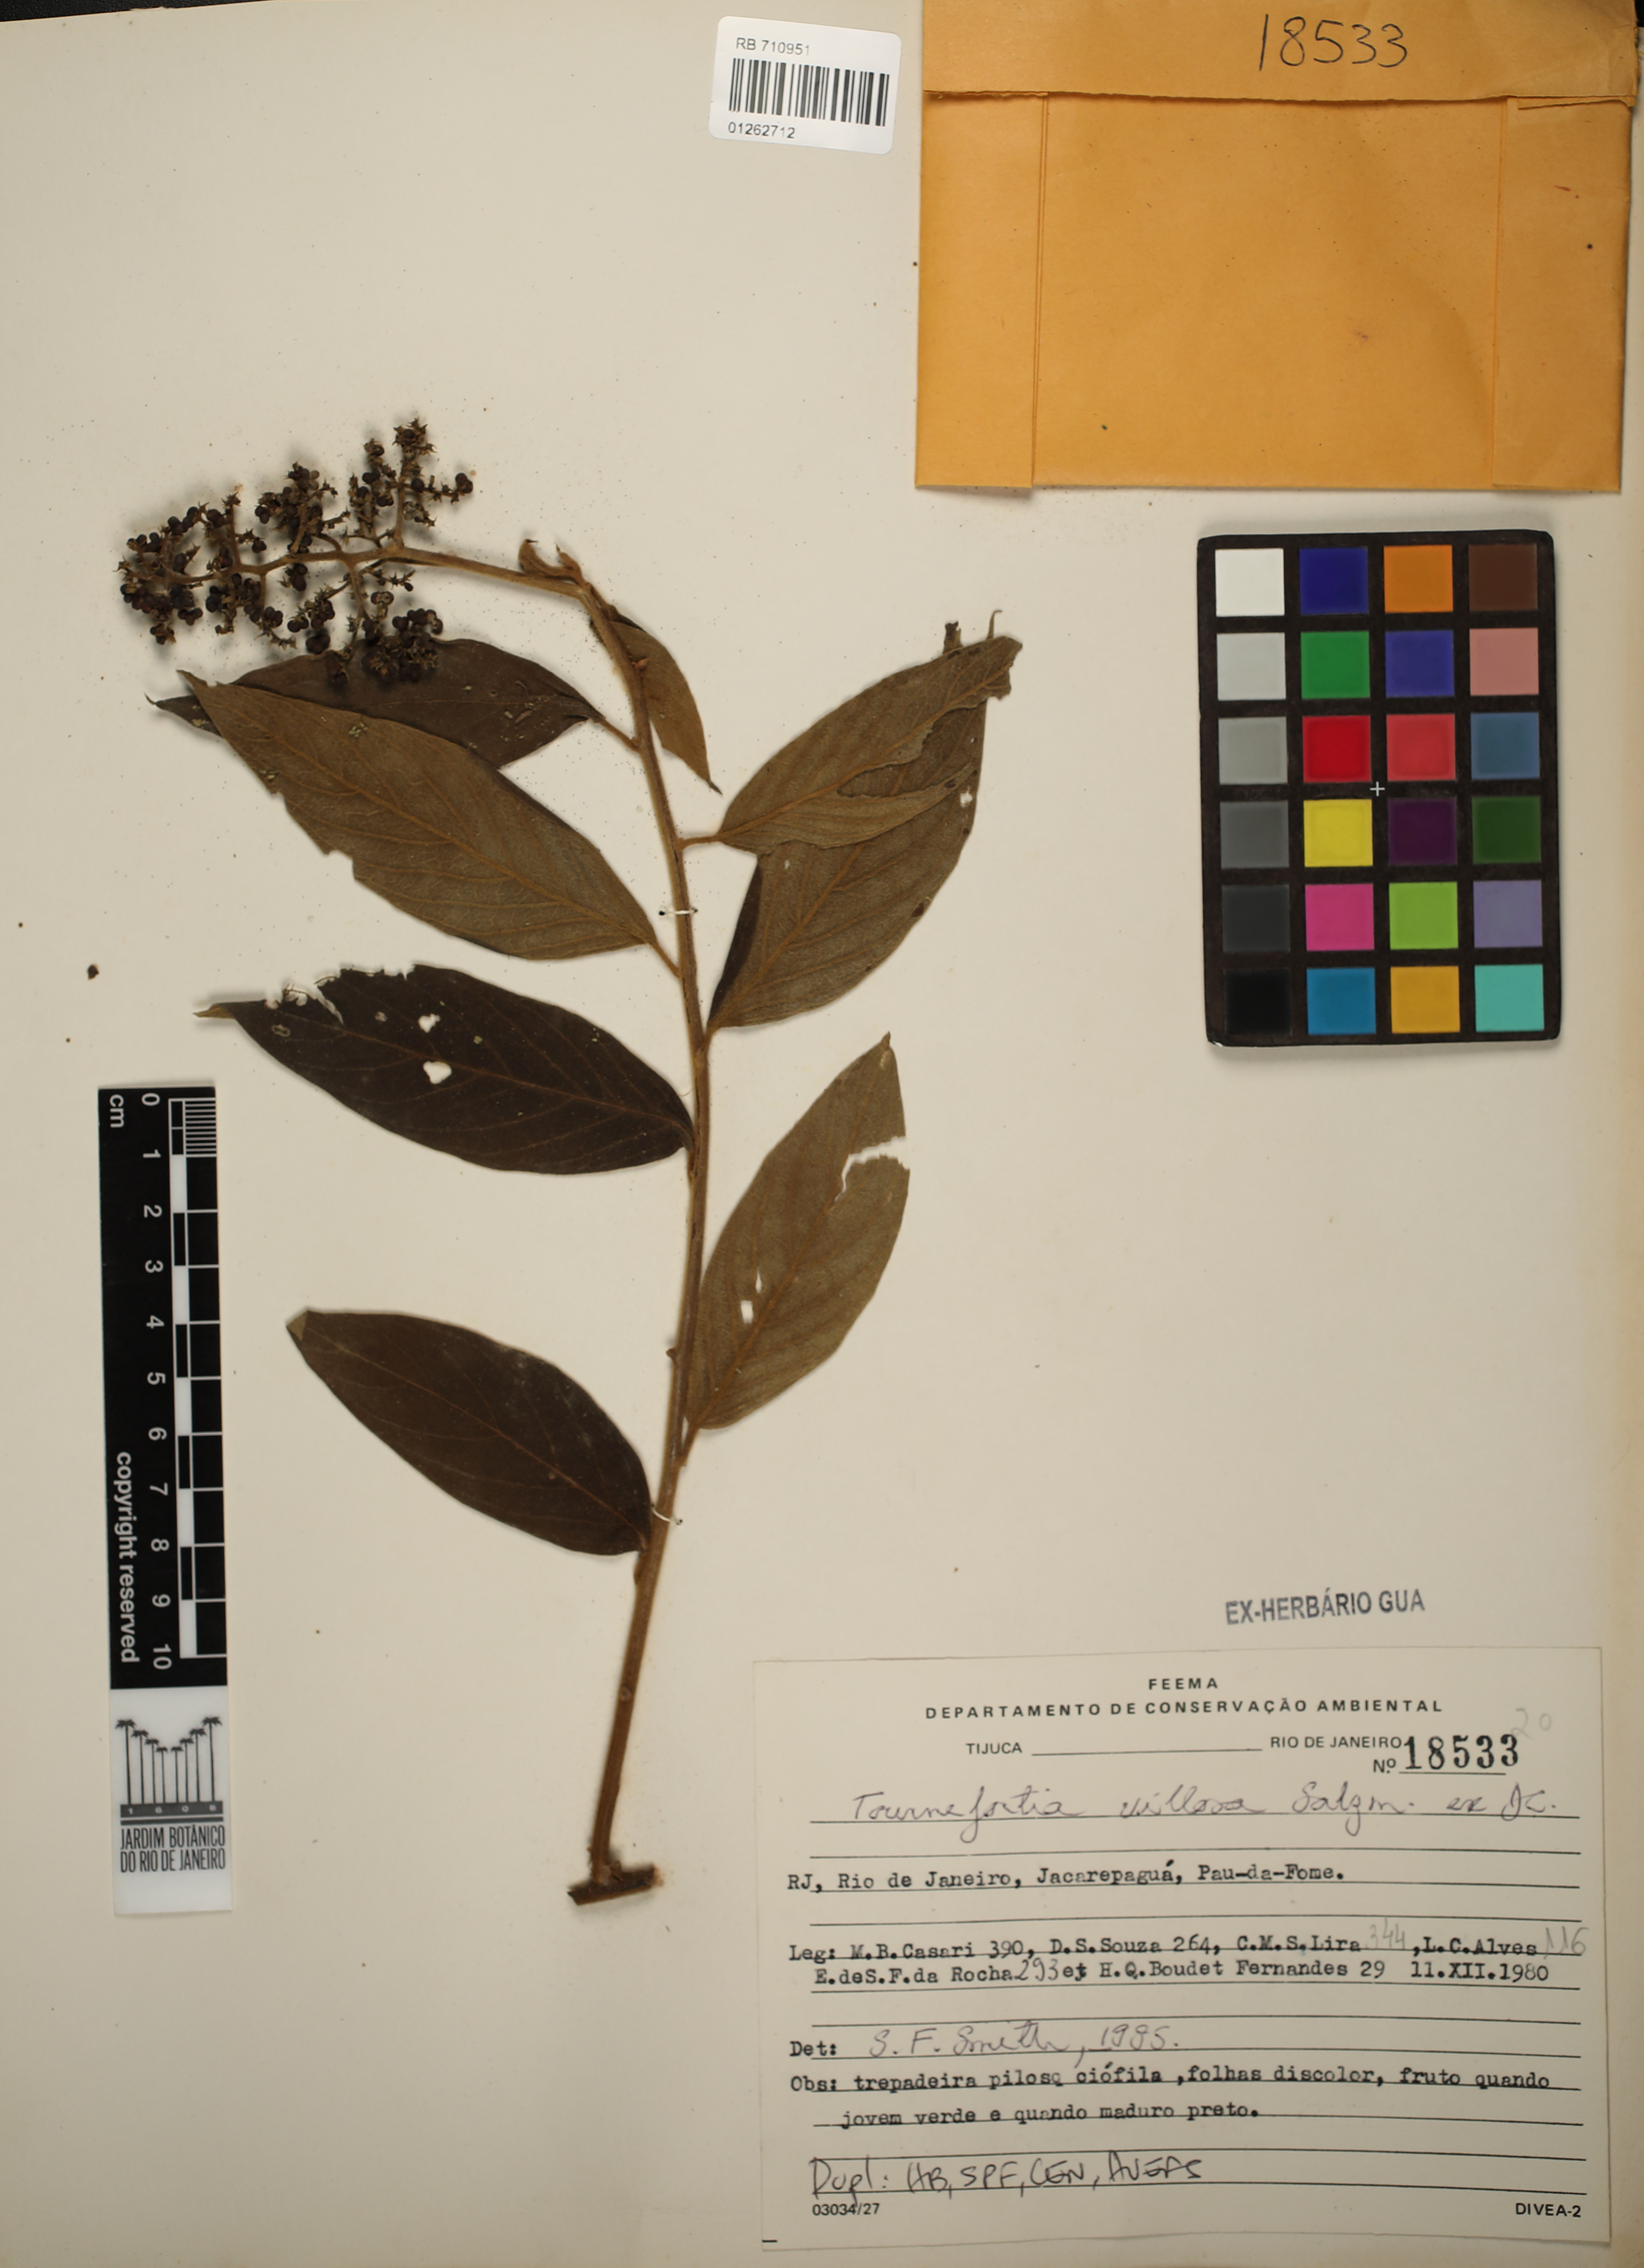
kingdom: Plantae
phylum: Tracheophyta
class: Magnoliopsida
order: Boraginales
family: Heliotropiaceae
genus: Tournefortia
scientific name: Tournefortia villosa
